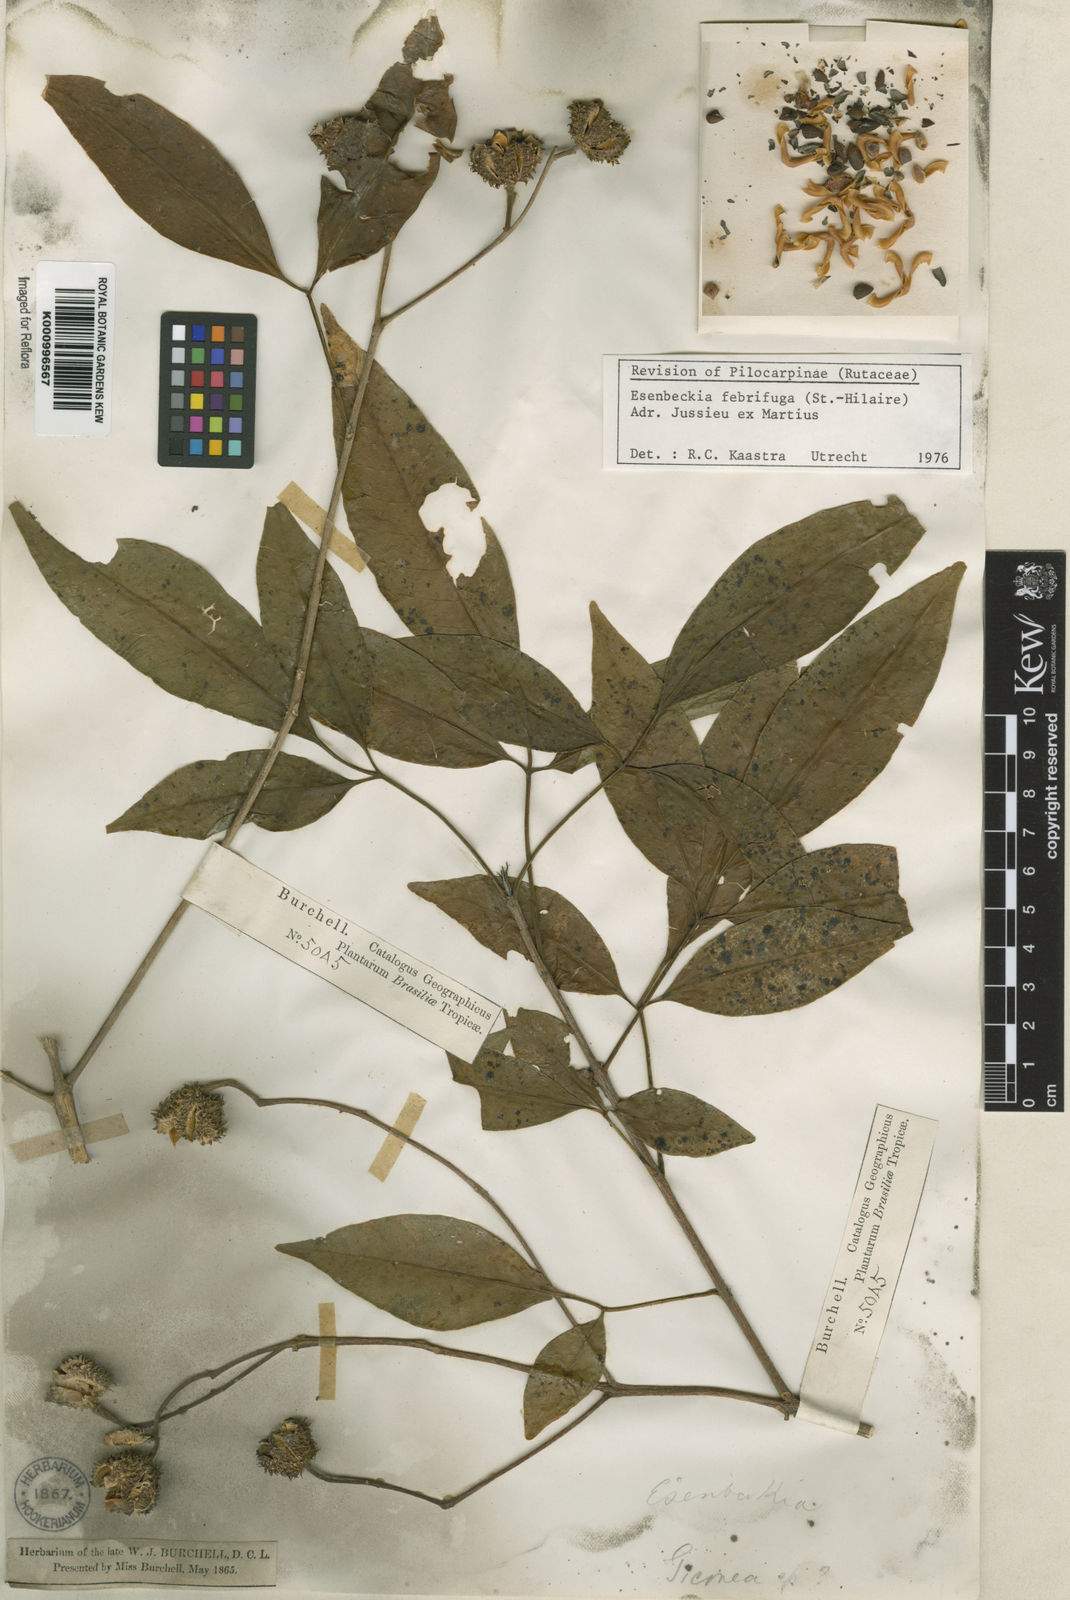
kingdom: Plantae
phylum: Tracheophyta
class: Magnoliopsida
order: Sapindales
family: Rutaceae
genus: Esenbeckia
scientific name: Esenbeckia febrifuga
